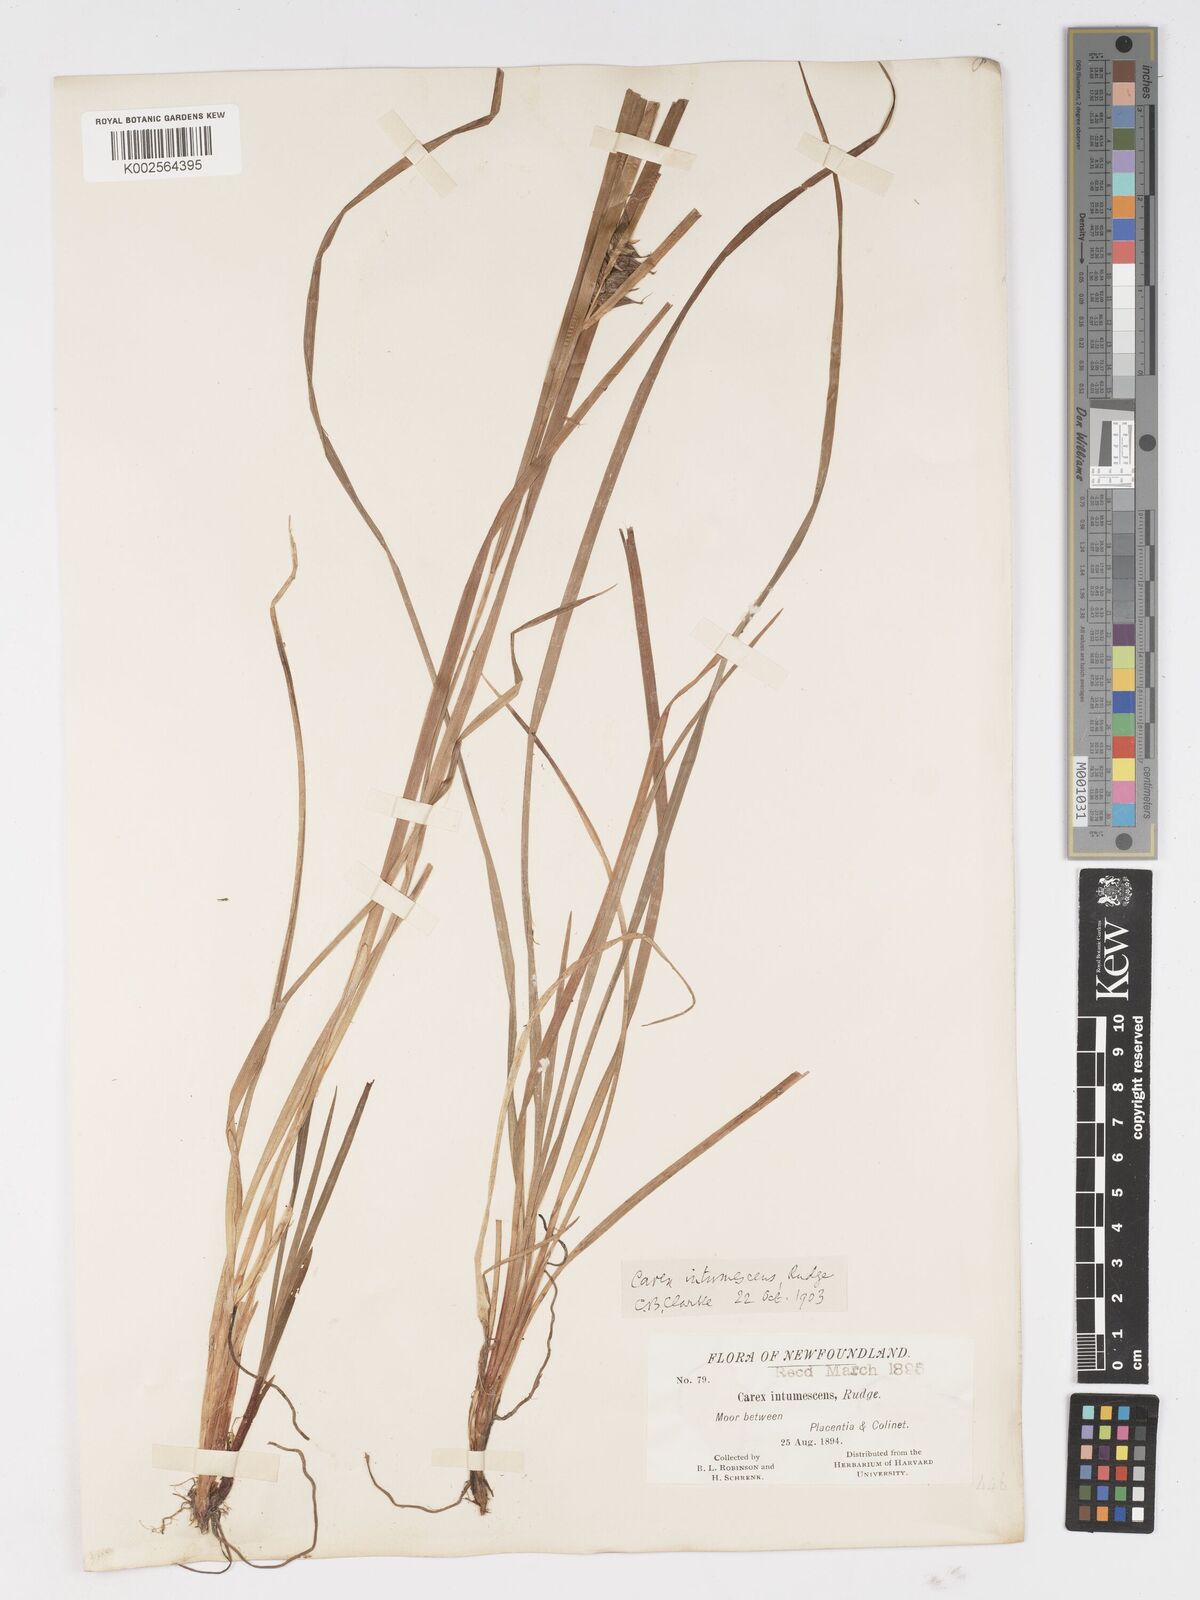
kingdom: Plantae
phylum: Tracheophyta
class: Liliopsida
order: Poales
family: Cyperaceae
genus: Carex
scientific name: Carex intumescens
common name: Greater bladder sedge
